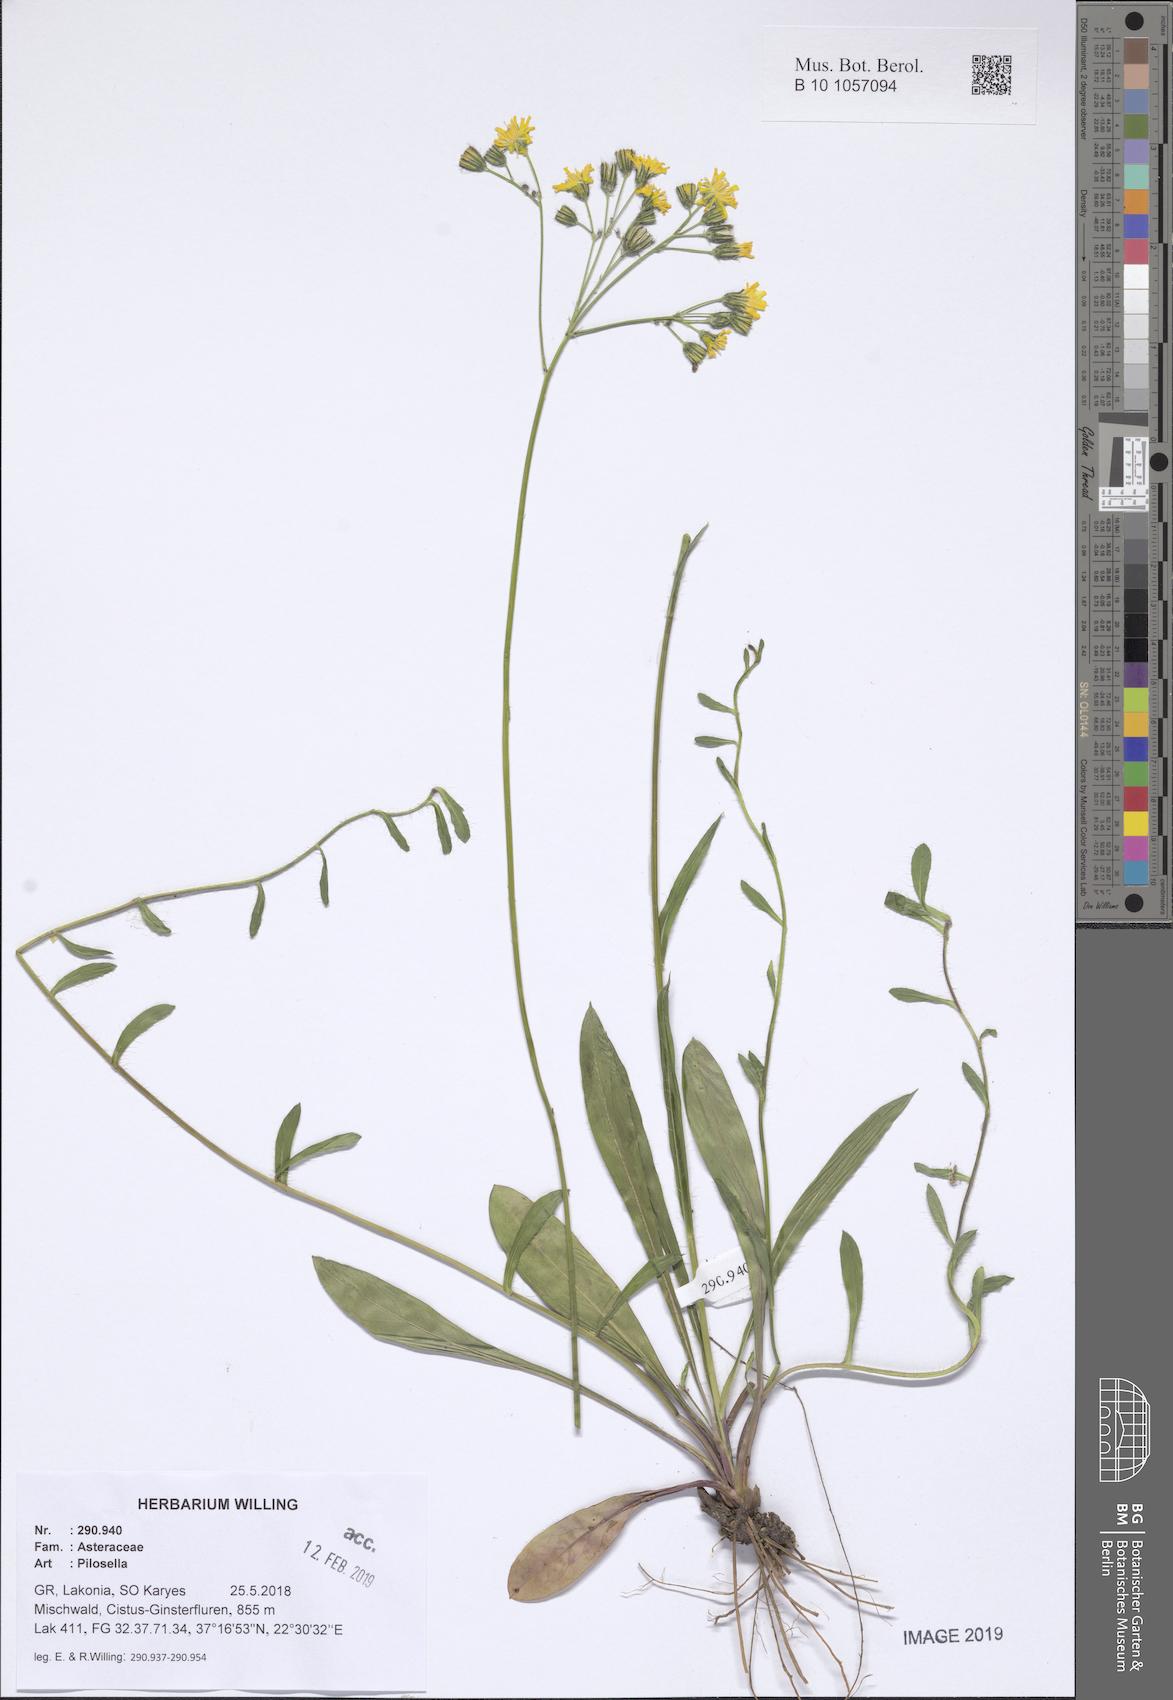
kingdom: Plantae
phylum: Tracheophyta
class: Magnoliopsida
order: Asterales
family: Asteraceae
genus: Pilosella
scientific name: Pilosella
